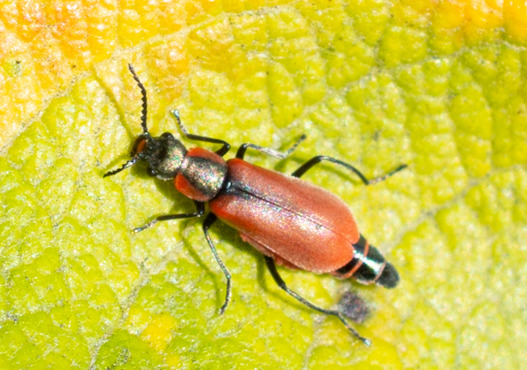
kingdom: Animalia
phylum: Arthropoda
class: Insecta
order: Coleoptera
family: Melyridae
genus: Anthocomus
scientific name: Anthocomus rufus
